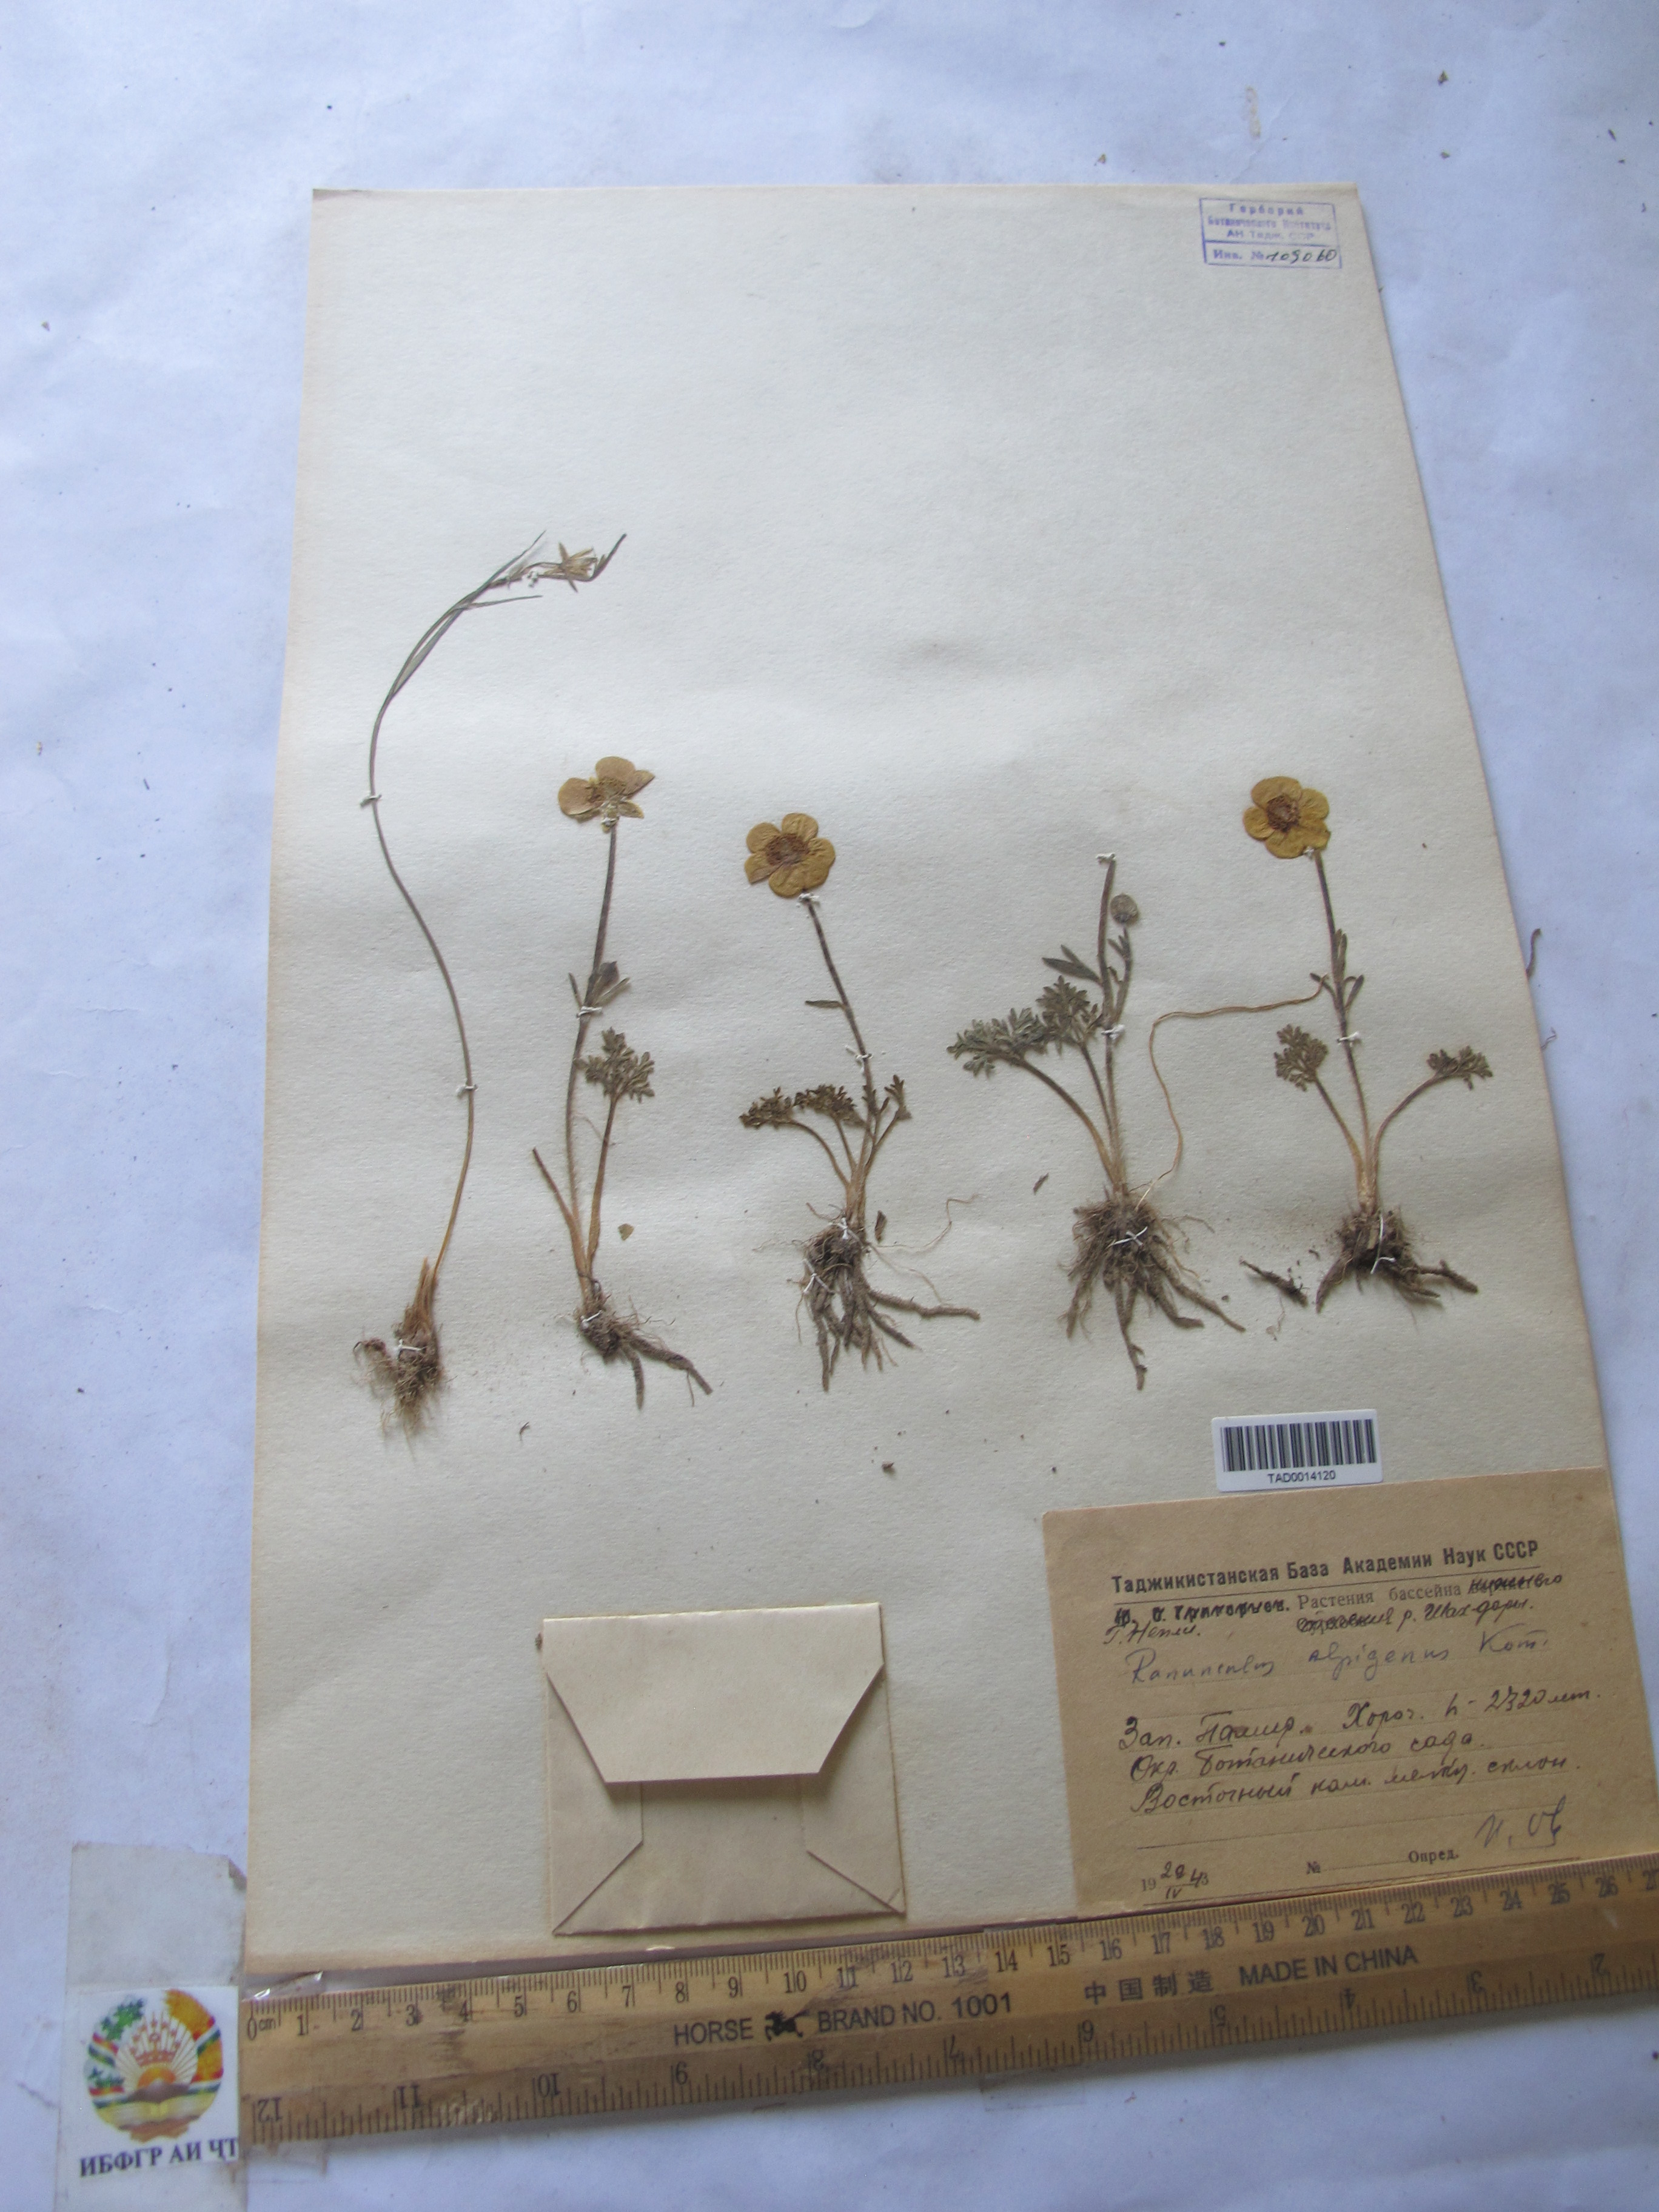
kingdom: Plantae
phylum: Tracheophyta
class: Magnoliopsida
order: Ranunculales
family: Ranunculaceae
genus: Ranunculus
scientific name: Ranunculus alpigenus
